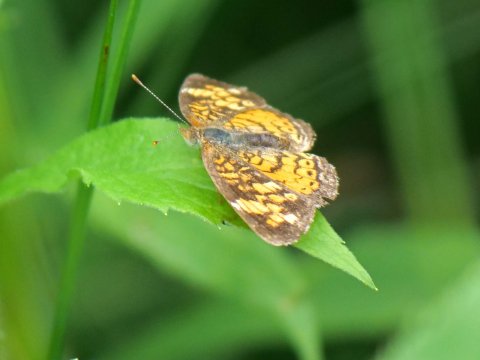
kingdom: Animalia
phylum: Arthropoda
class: Insecta
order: Lepidoptera
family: Nymphalidae
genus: Phyciodes
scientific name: Phyciodes
